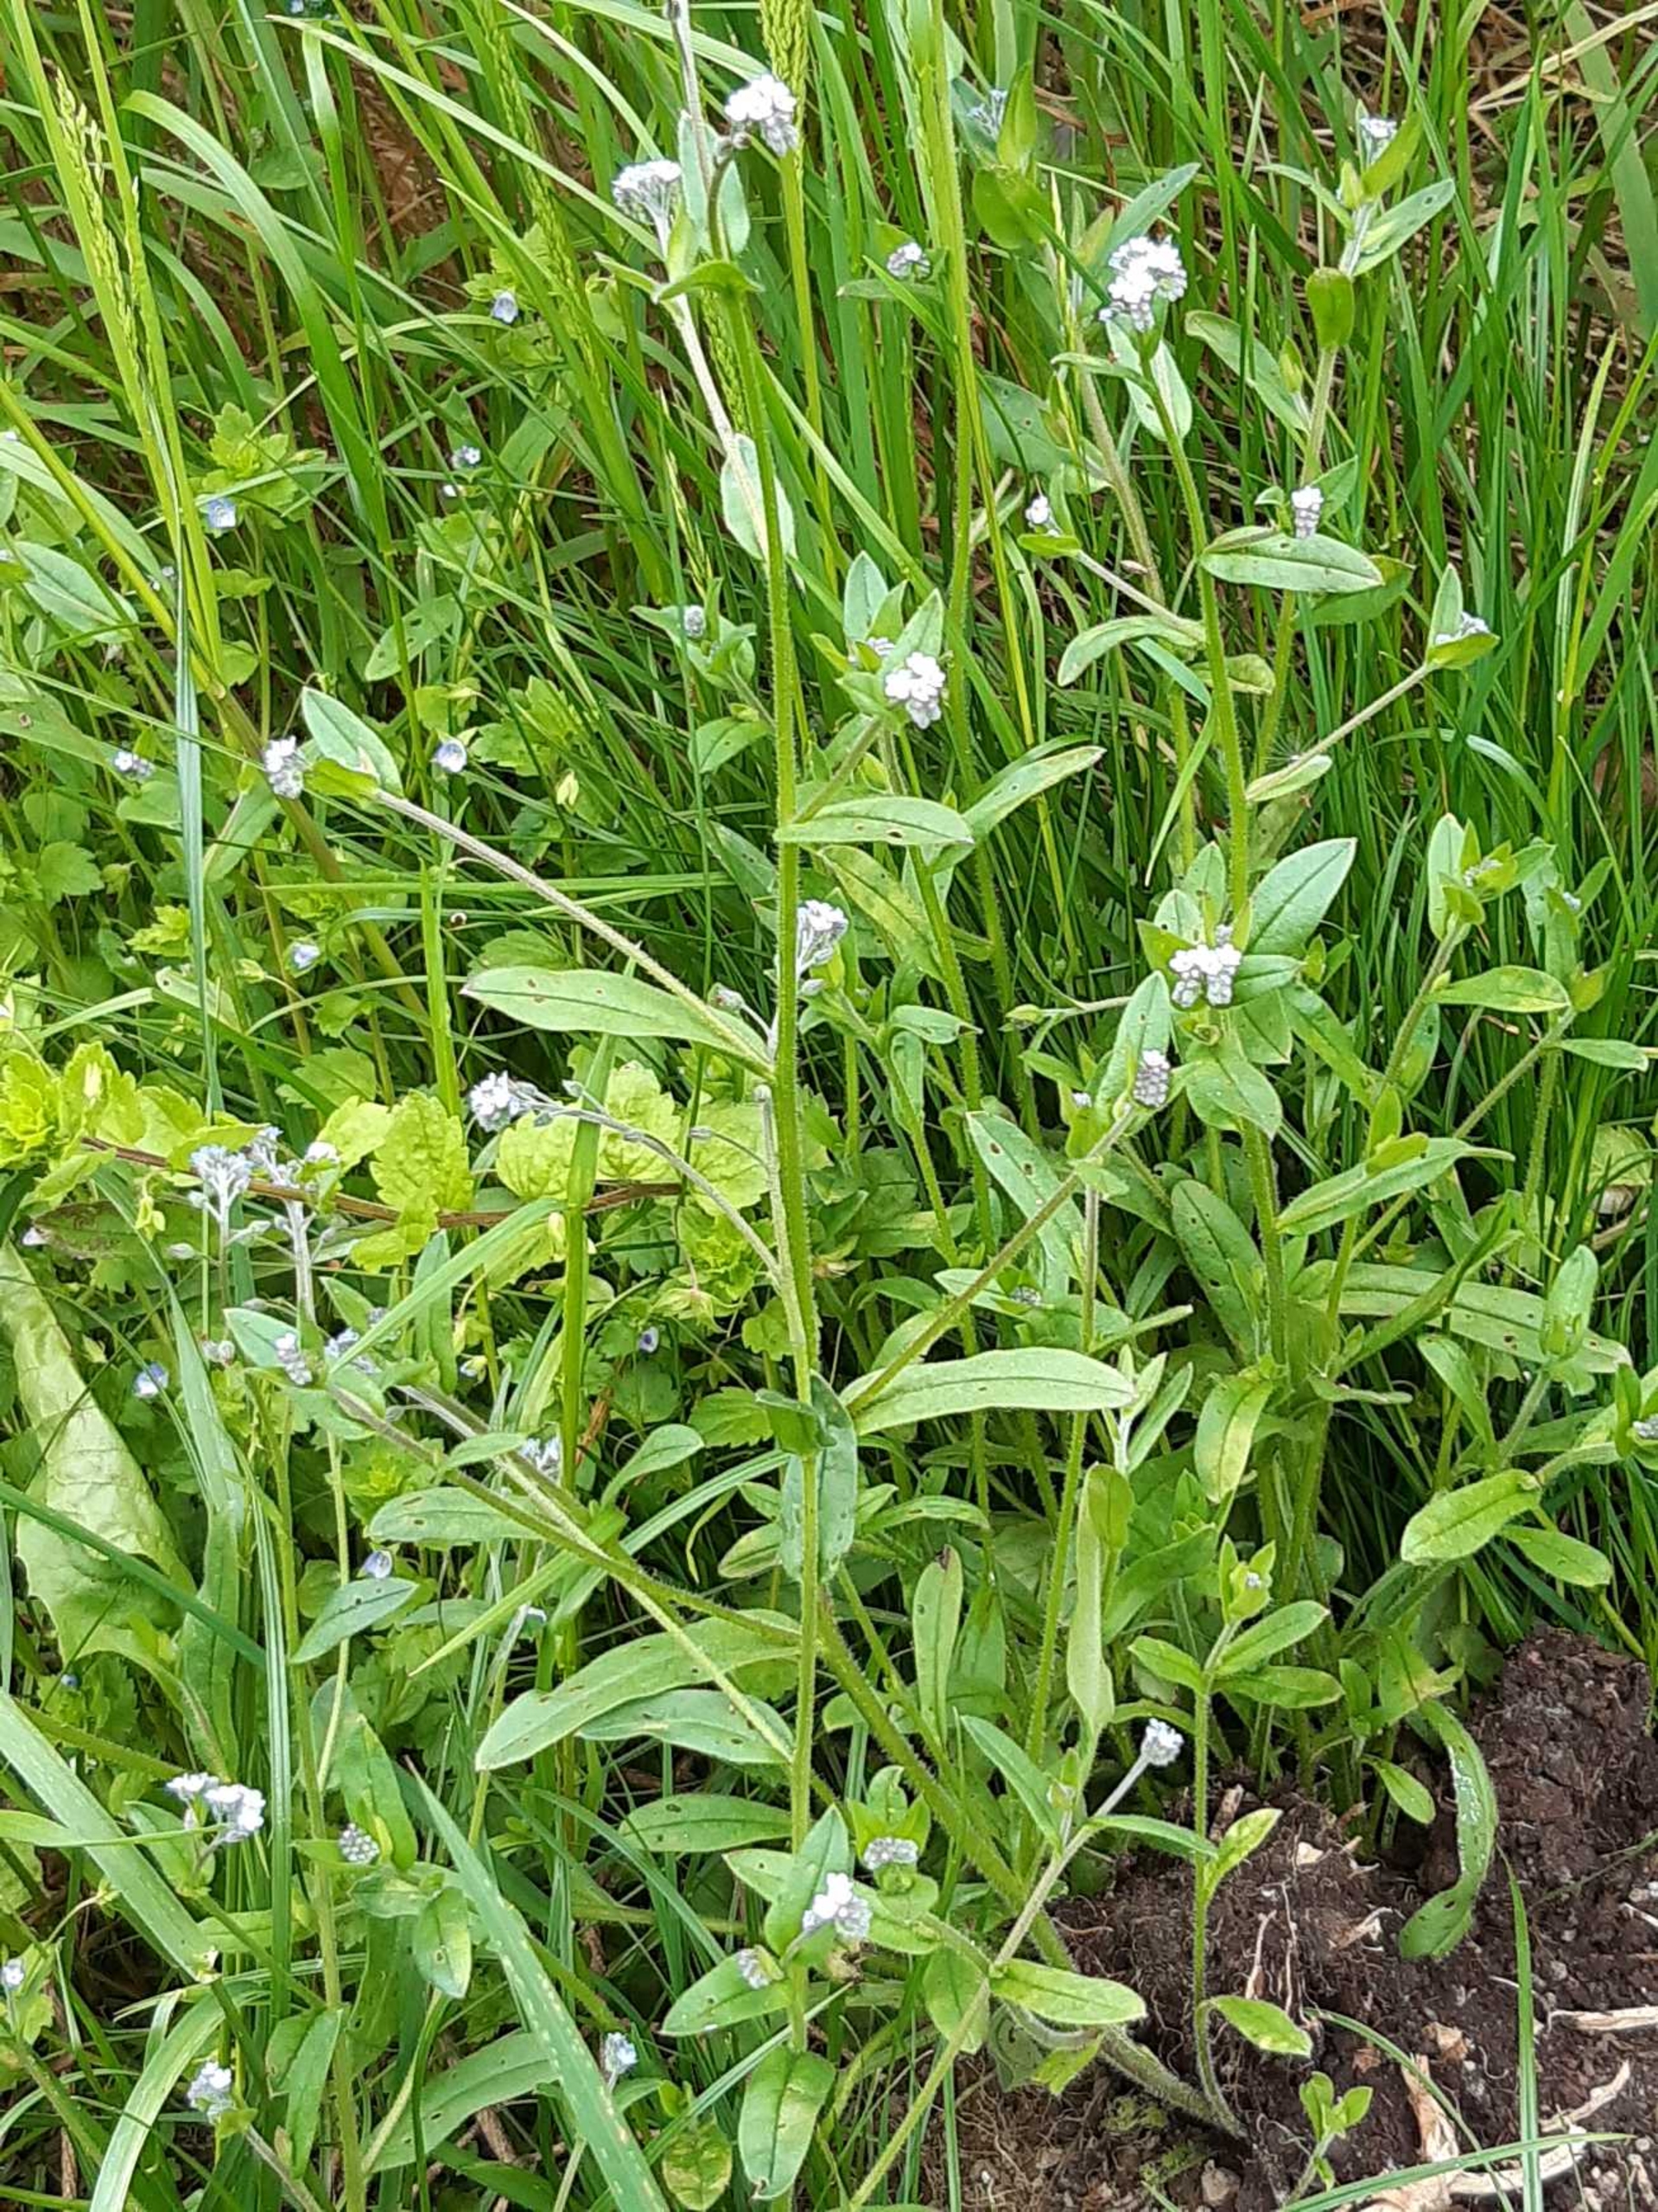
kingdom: Plantae
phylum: Tracheophyta
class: Magnoliopsida
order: Boraginales
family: Boraginaceae
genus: Myosotis
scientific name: Myosotis arvensis
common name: Mark-forglemmigej
